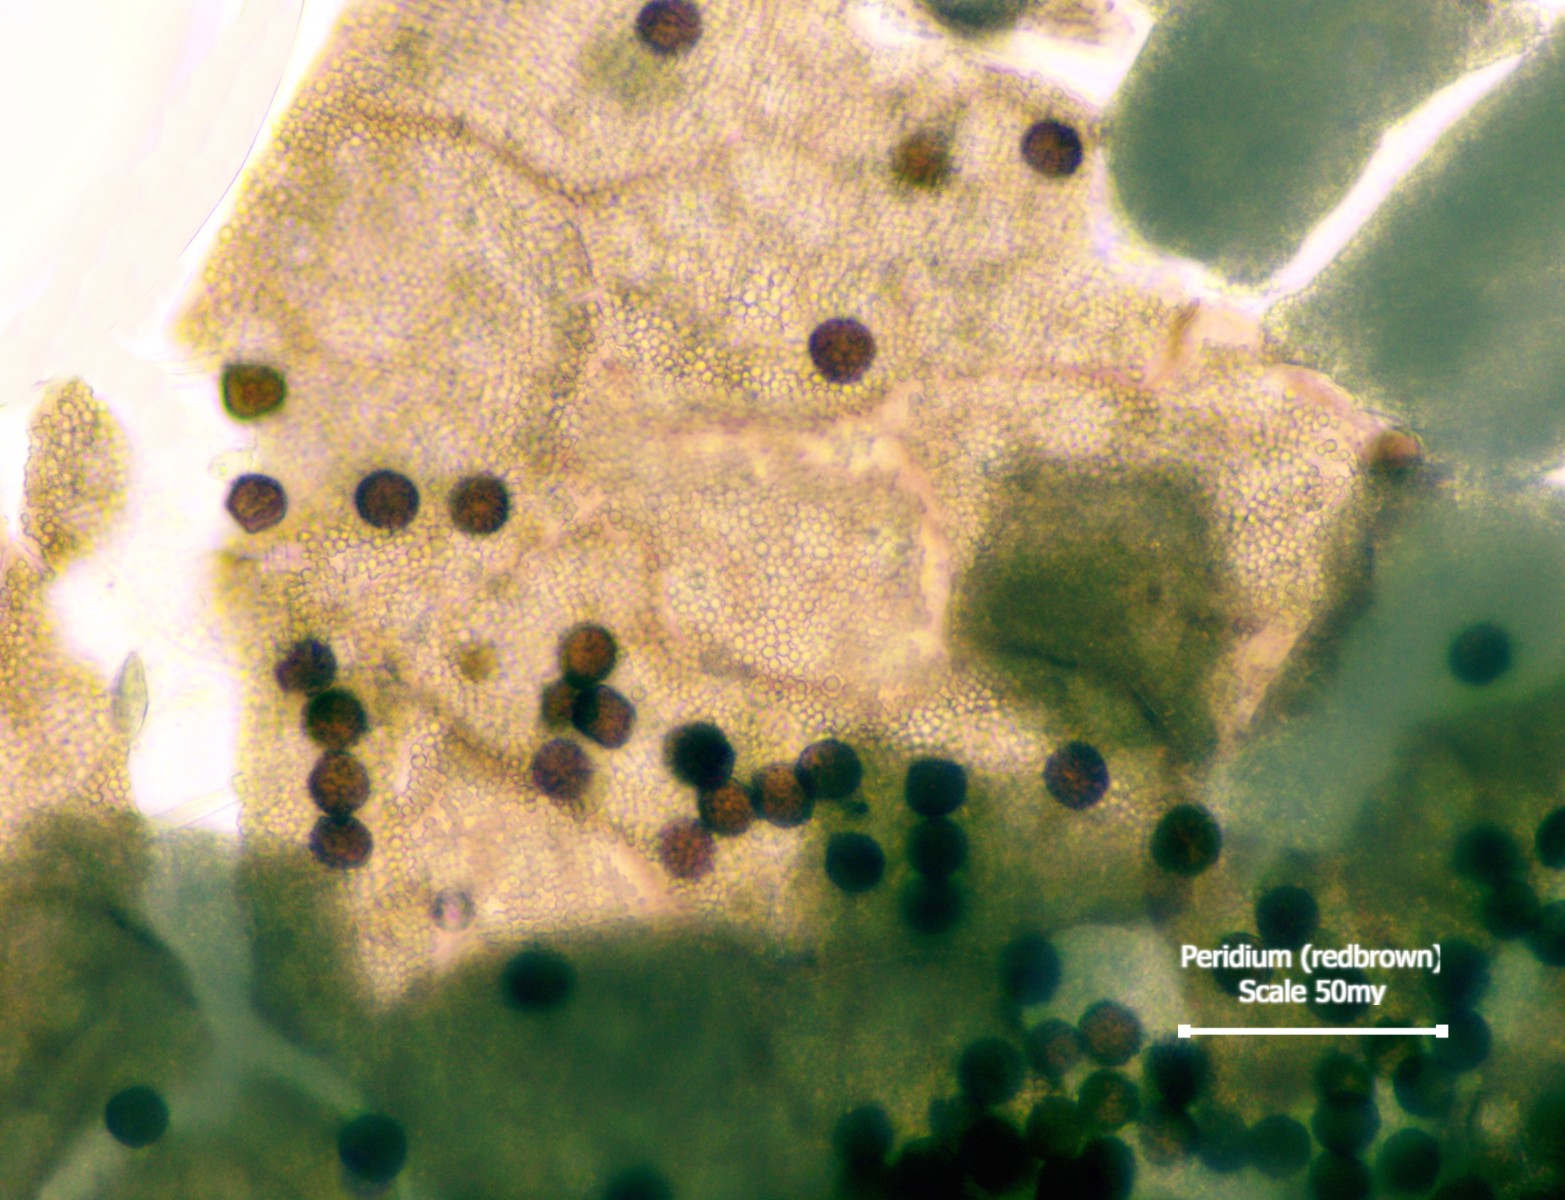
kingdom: Protozoa
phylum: Mycetozoa
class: Myxomycetes
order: Physarales
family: Physaraceae
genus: Physarum
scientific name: Physarum bitectum
